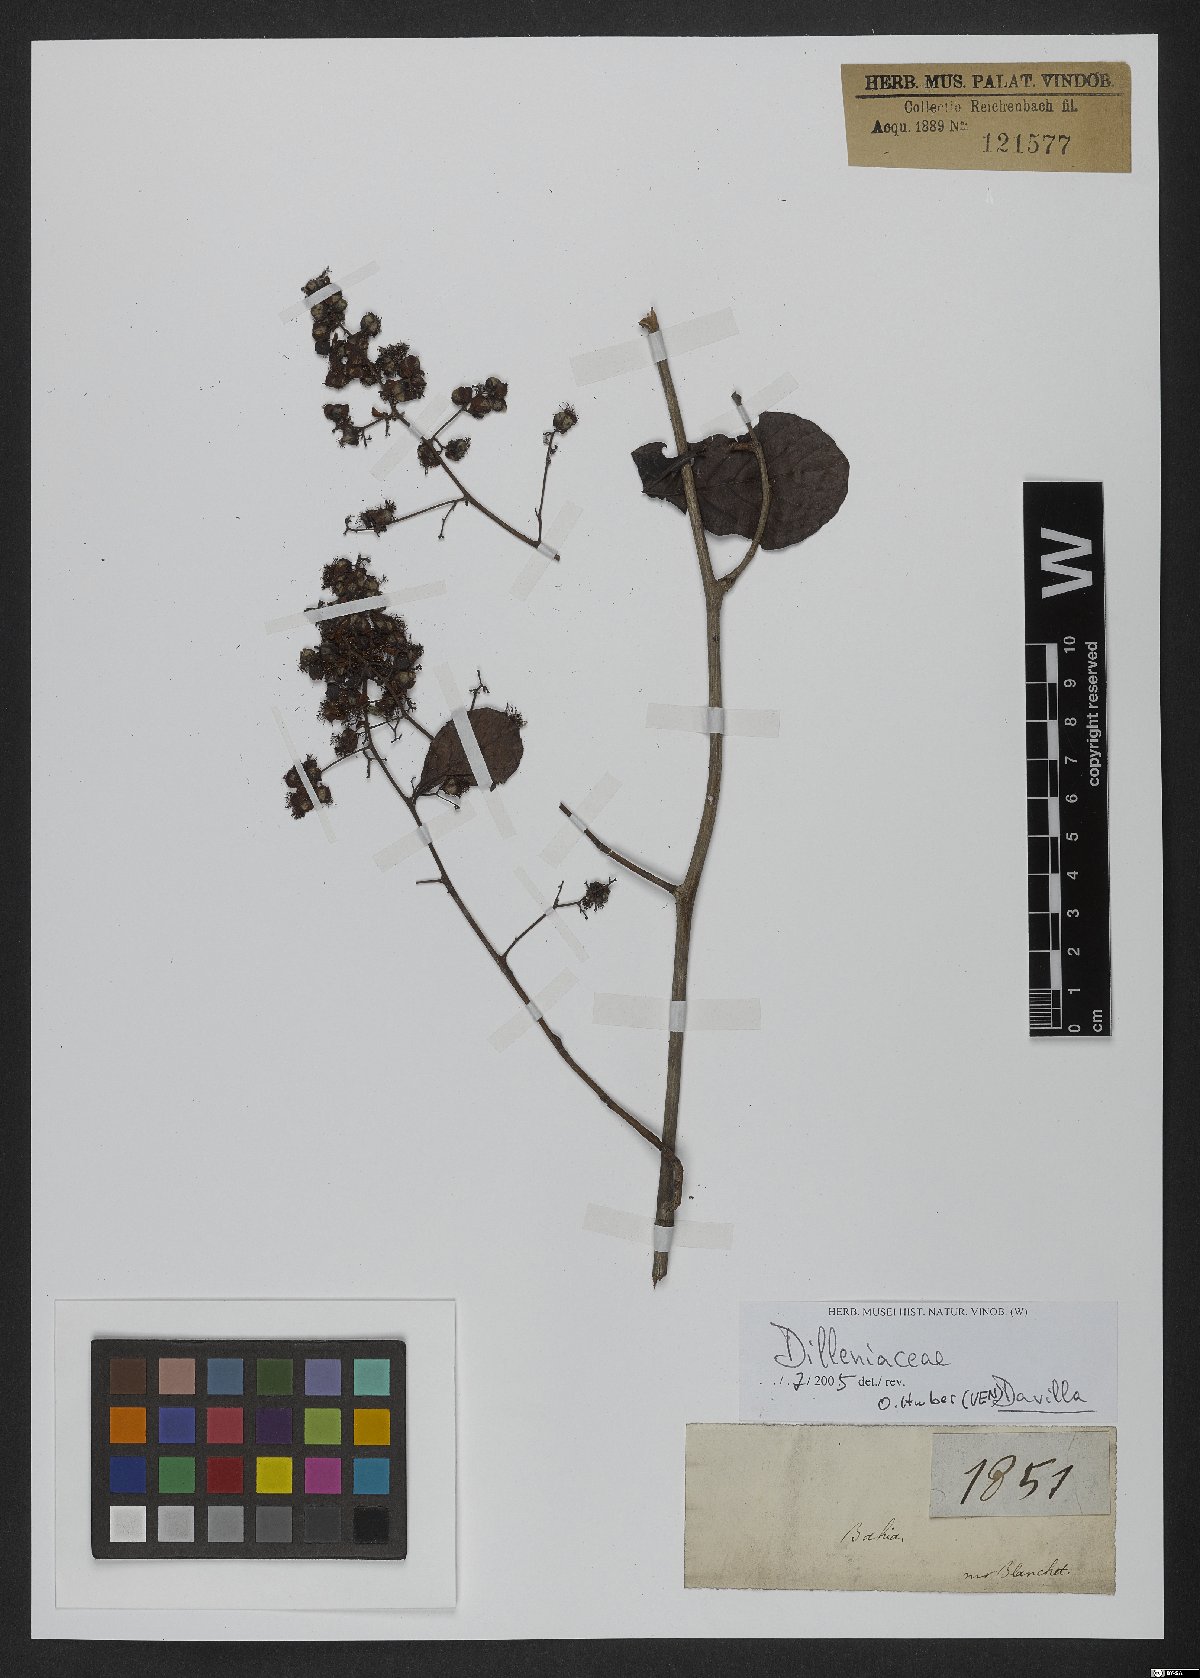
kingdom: Plantae
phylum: Tracheophyta
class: Magnoliopsida
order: Dilleniales
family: Dilleniaceae
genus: Davilla
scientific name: Davilla
